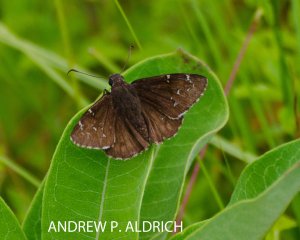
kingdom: Animalia
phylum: Arthropoda
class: Insecta
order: Lepidoptera
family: Hesperiidae
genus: Autochton
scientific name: Autochton
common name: Northern Cloudywing
